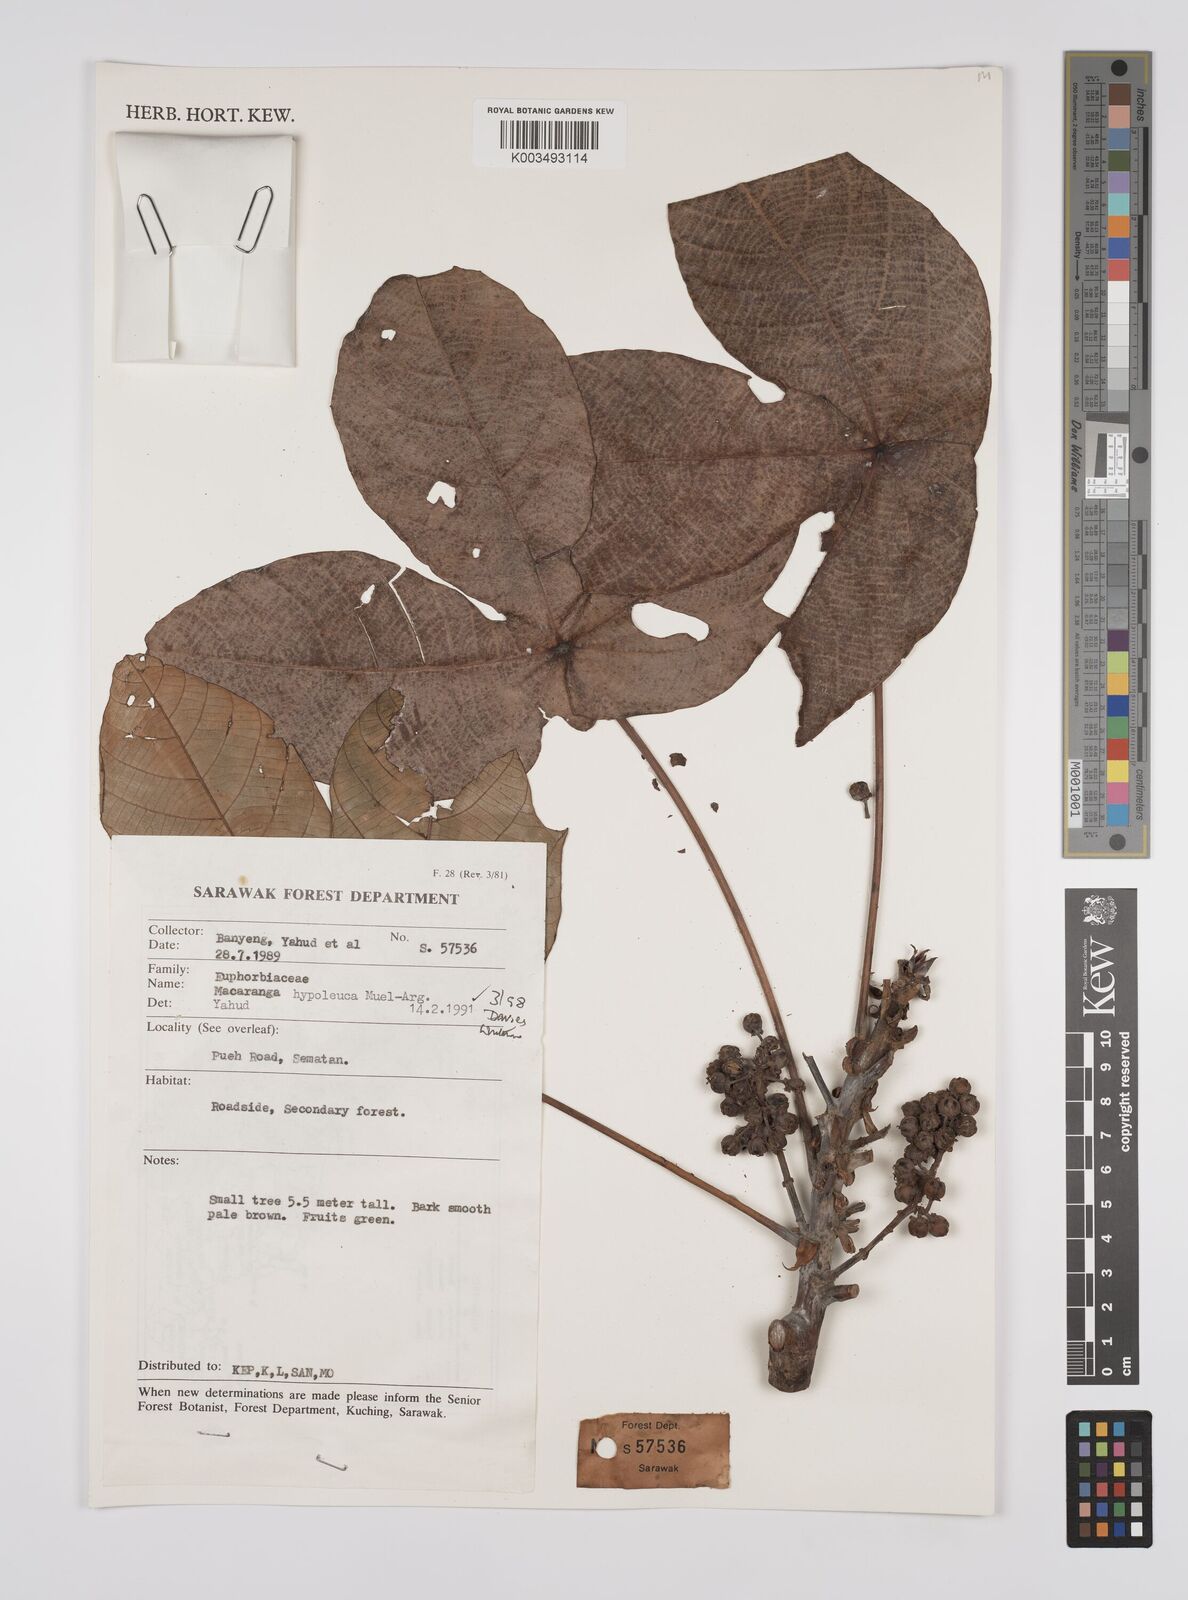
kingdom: Plantae
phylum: Tracheophyta
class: Magnoliopsida
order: Malpighiales
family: Euphorbiaceae
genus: Macaranga
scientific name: Macaranga hypoleuca
